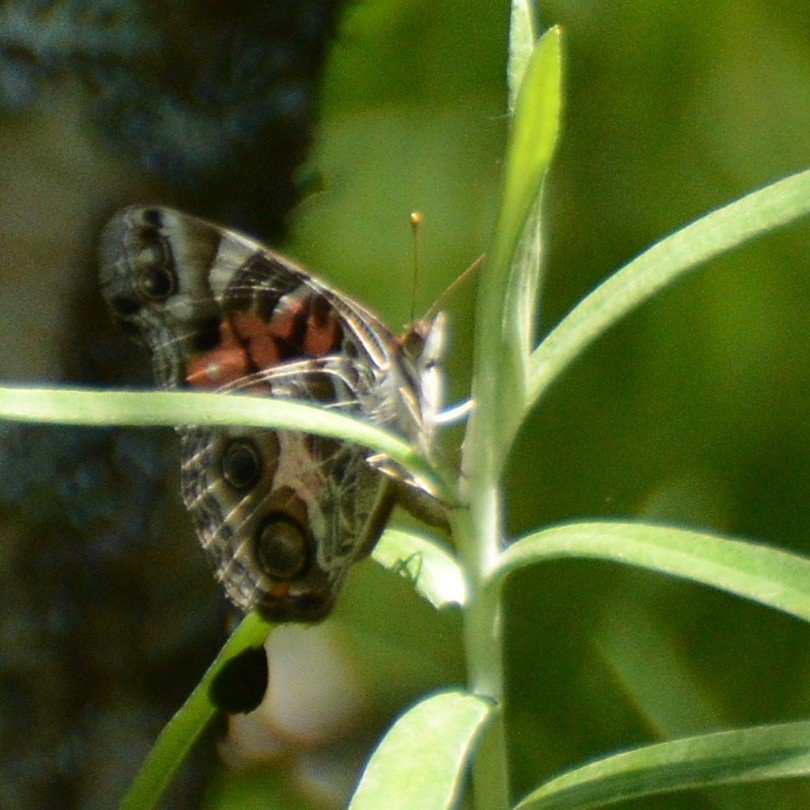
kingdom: Animalia
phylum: Arthropoda
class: Insecta
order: Lepidoptera
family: Nymphalidae
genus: Vanessa
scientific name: Vanessa virginiensis
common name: American Lady
